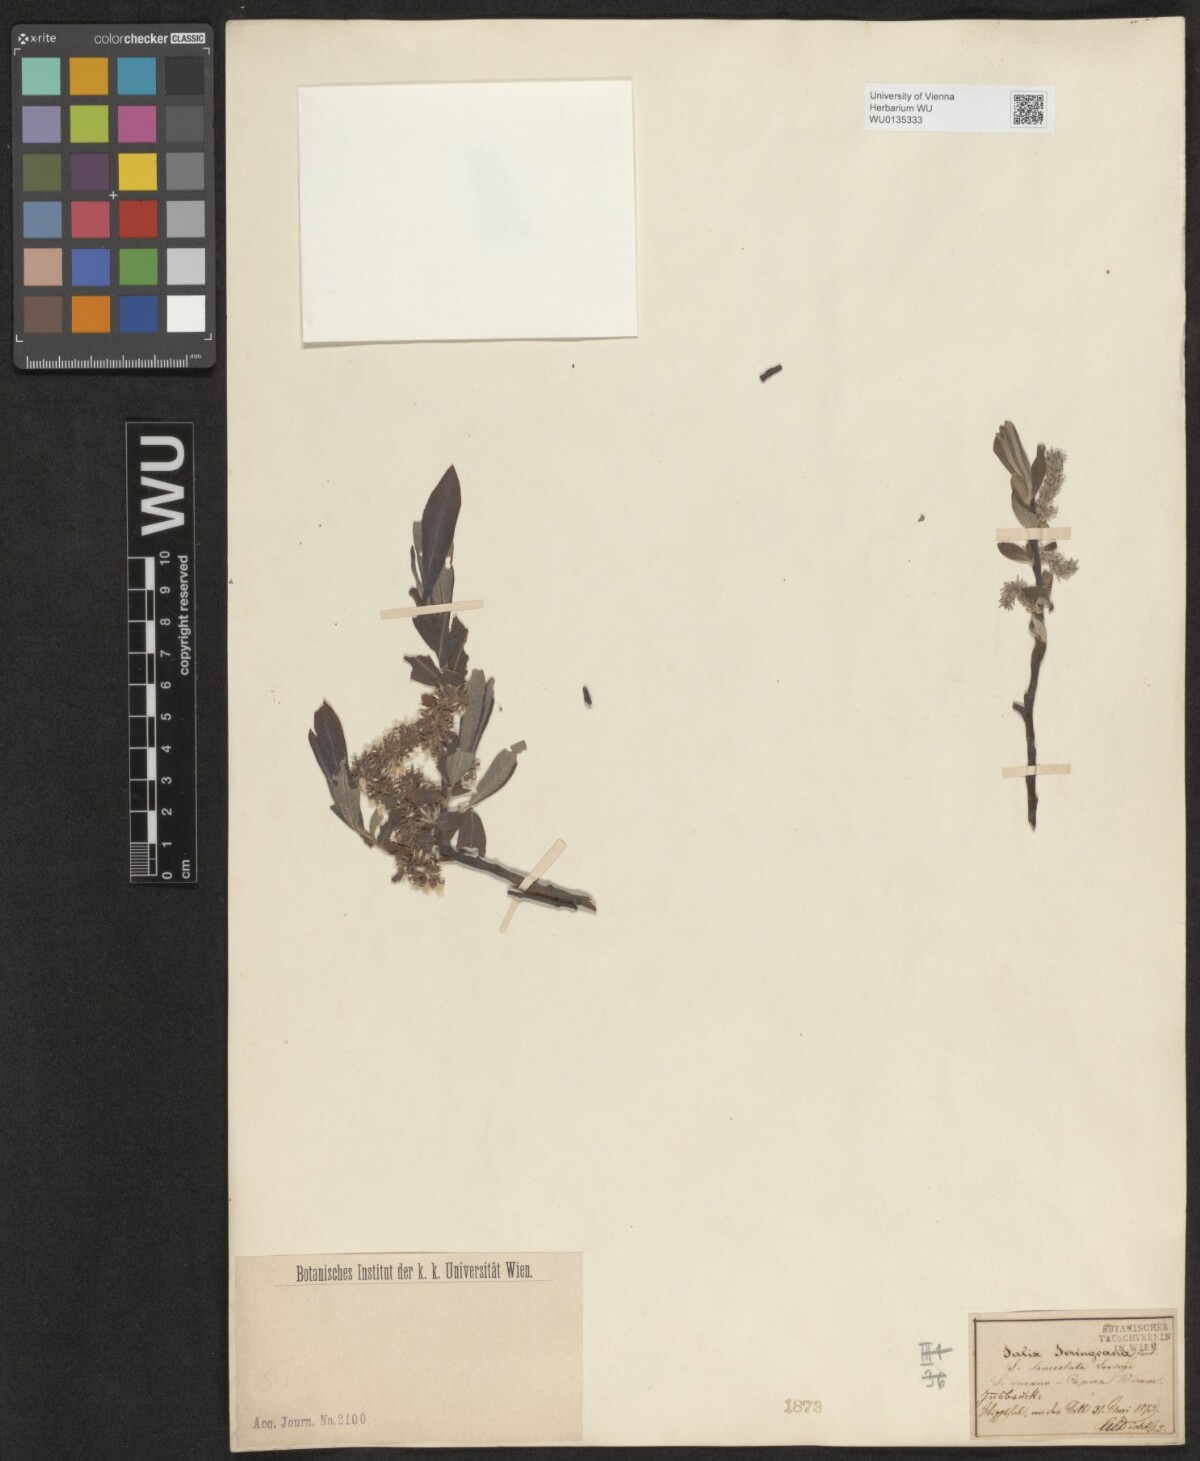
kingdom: Plantae
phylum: Tracheophyta
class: Magnoliopsida
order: Malpighiales
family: Salicaceae
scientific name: Salicaceae
